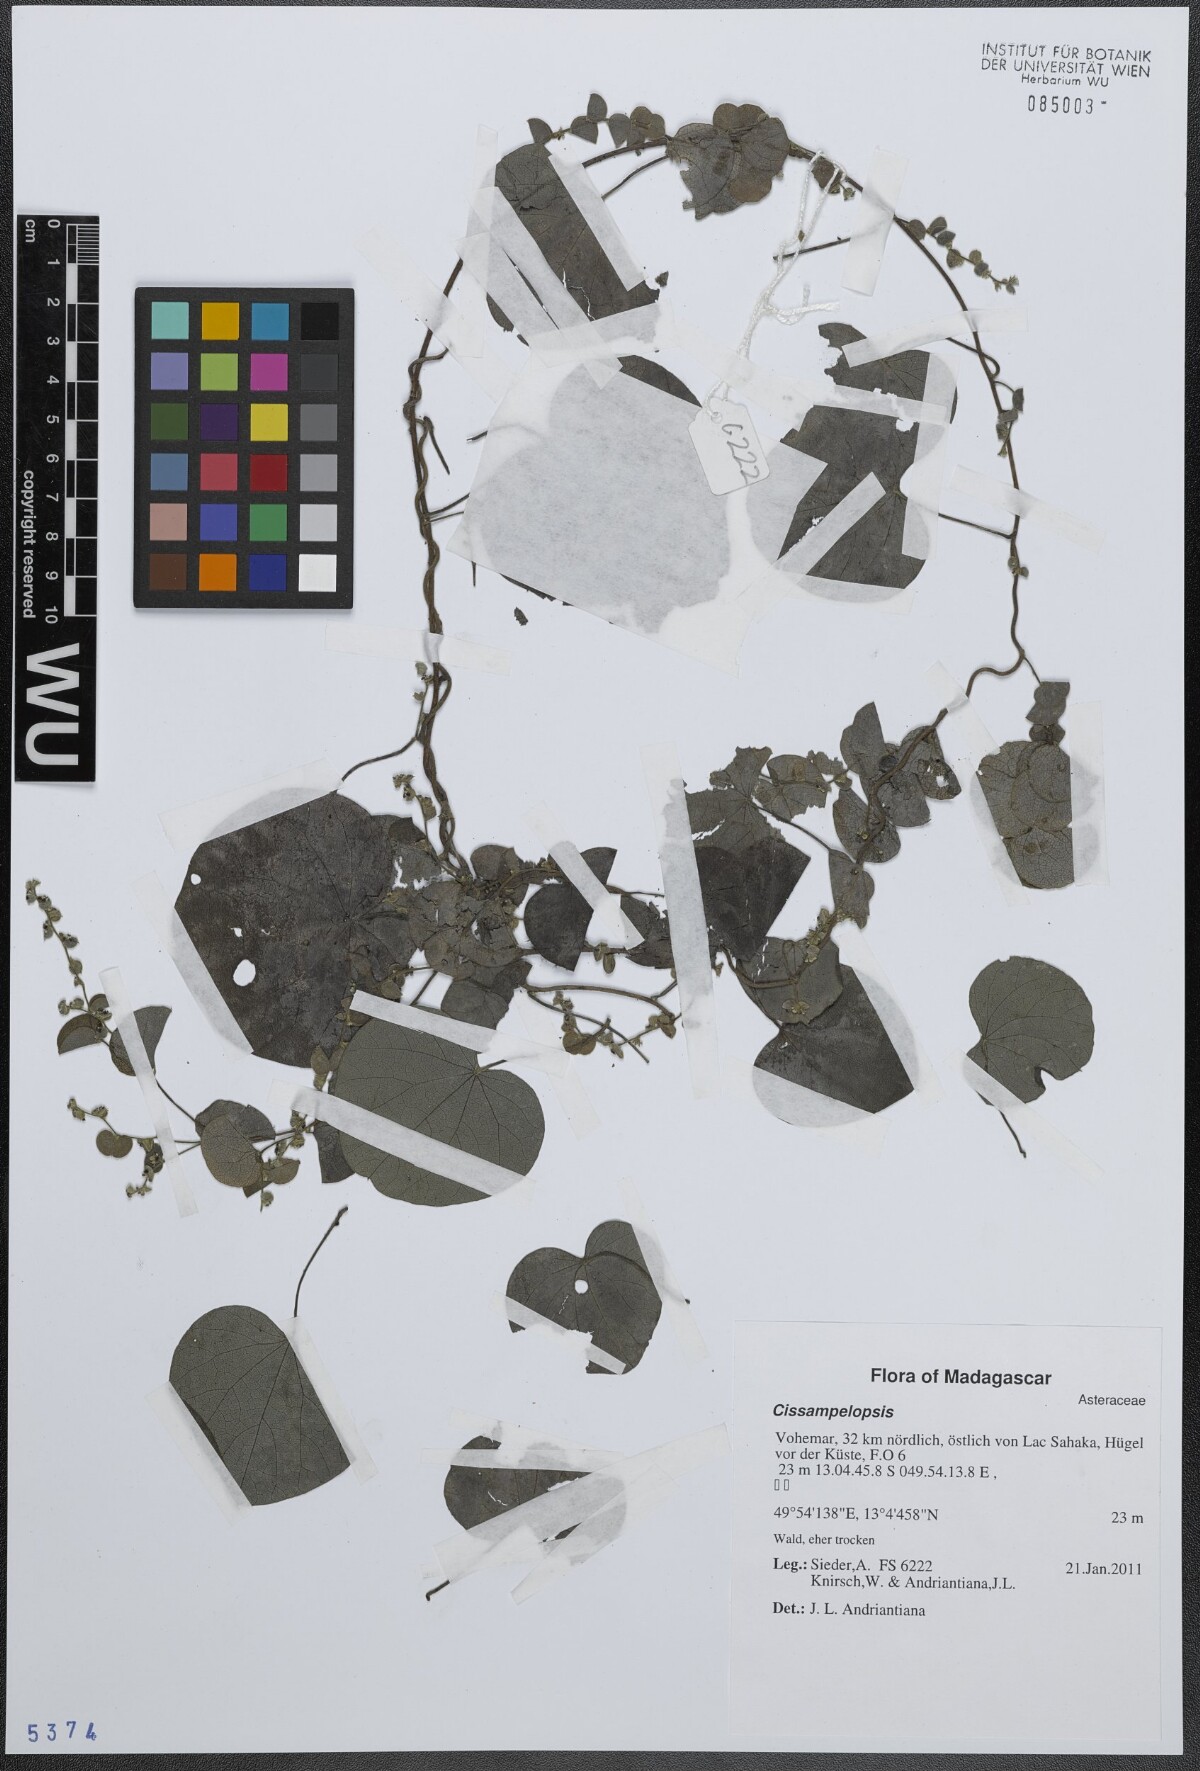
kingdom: Plantae
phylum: Tracheophyta
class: Magnoliopsida
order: Asterales
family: Asteraceae
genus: Cissampelopsis
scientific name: Cissampelopsis
